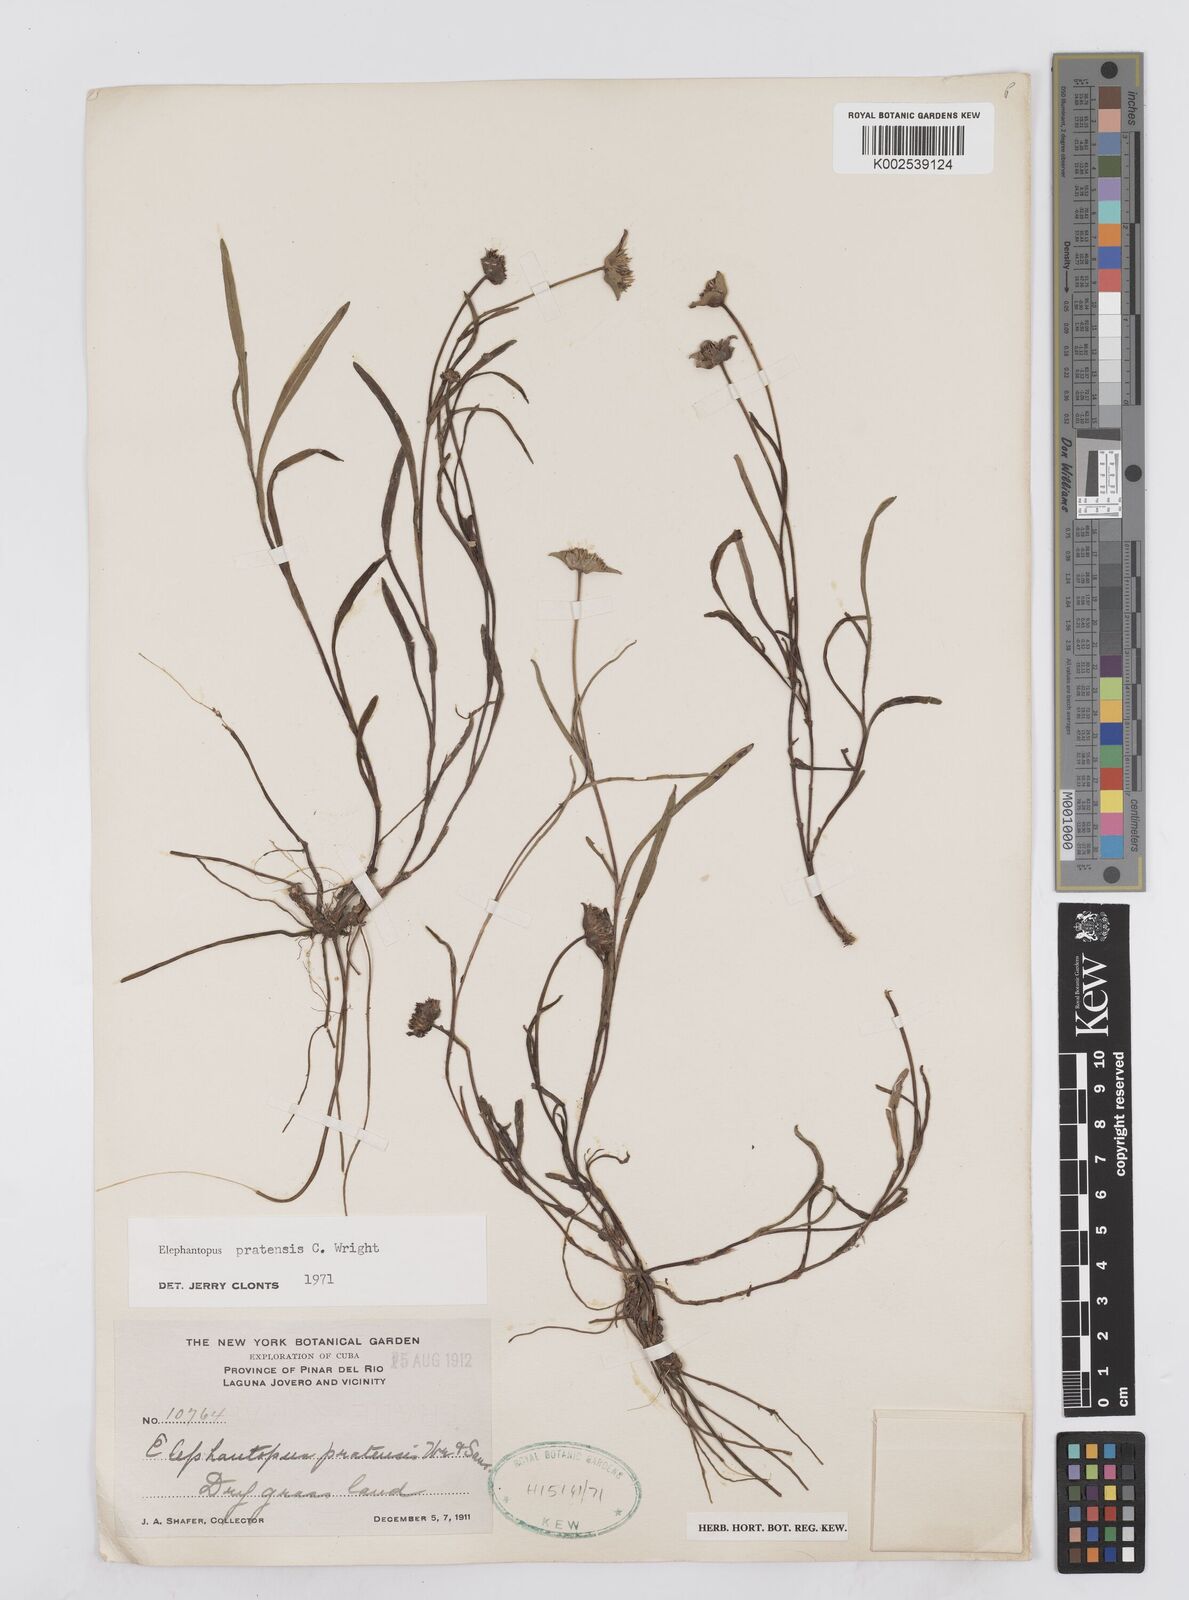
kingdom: Plantae
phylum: Tracheophyta
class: Magnoliopsida
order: Asterales
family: Asteraceae
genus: Elephantopus
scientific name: Elephantopus pratensis
